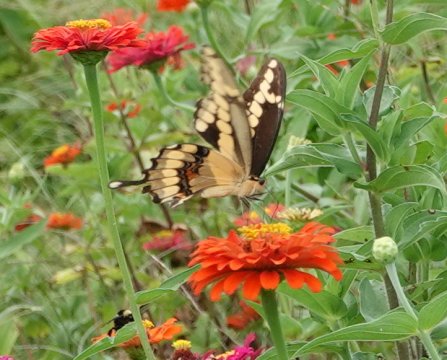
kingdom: Animalia
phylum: Arthropoda
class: Insecta
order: Lepidoptera
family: Papilionidae
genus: Papilio
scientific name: Papilio cresphontes
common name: Eastern Giant Swallowtail
